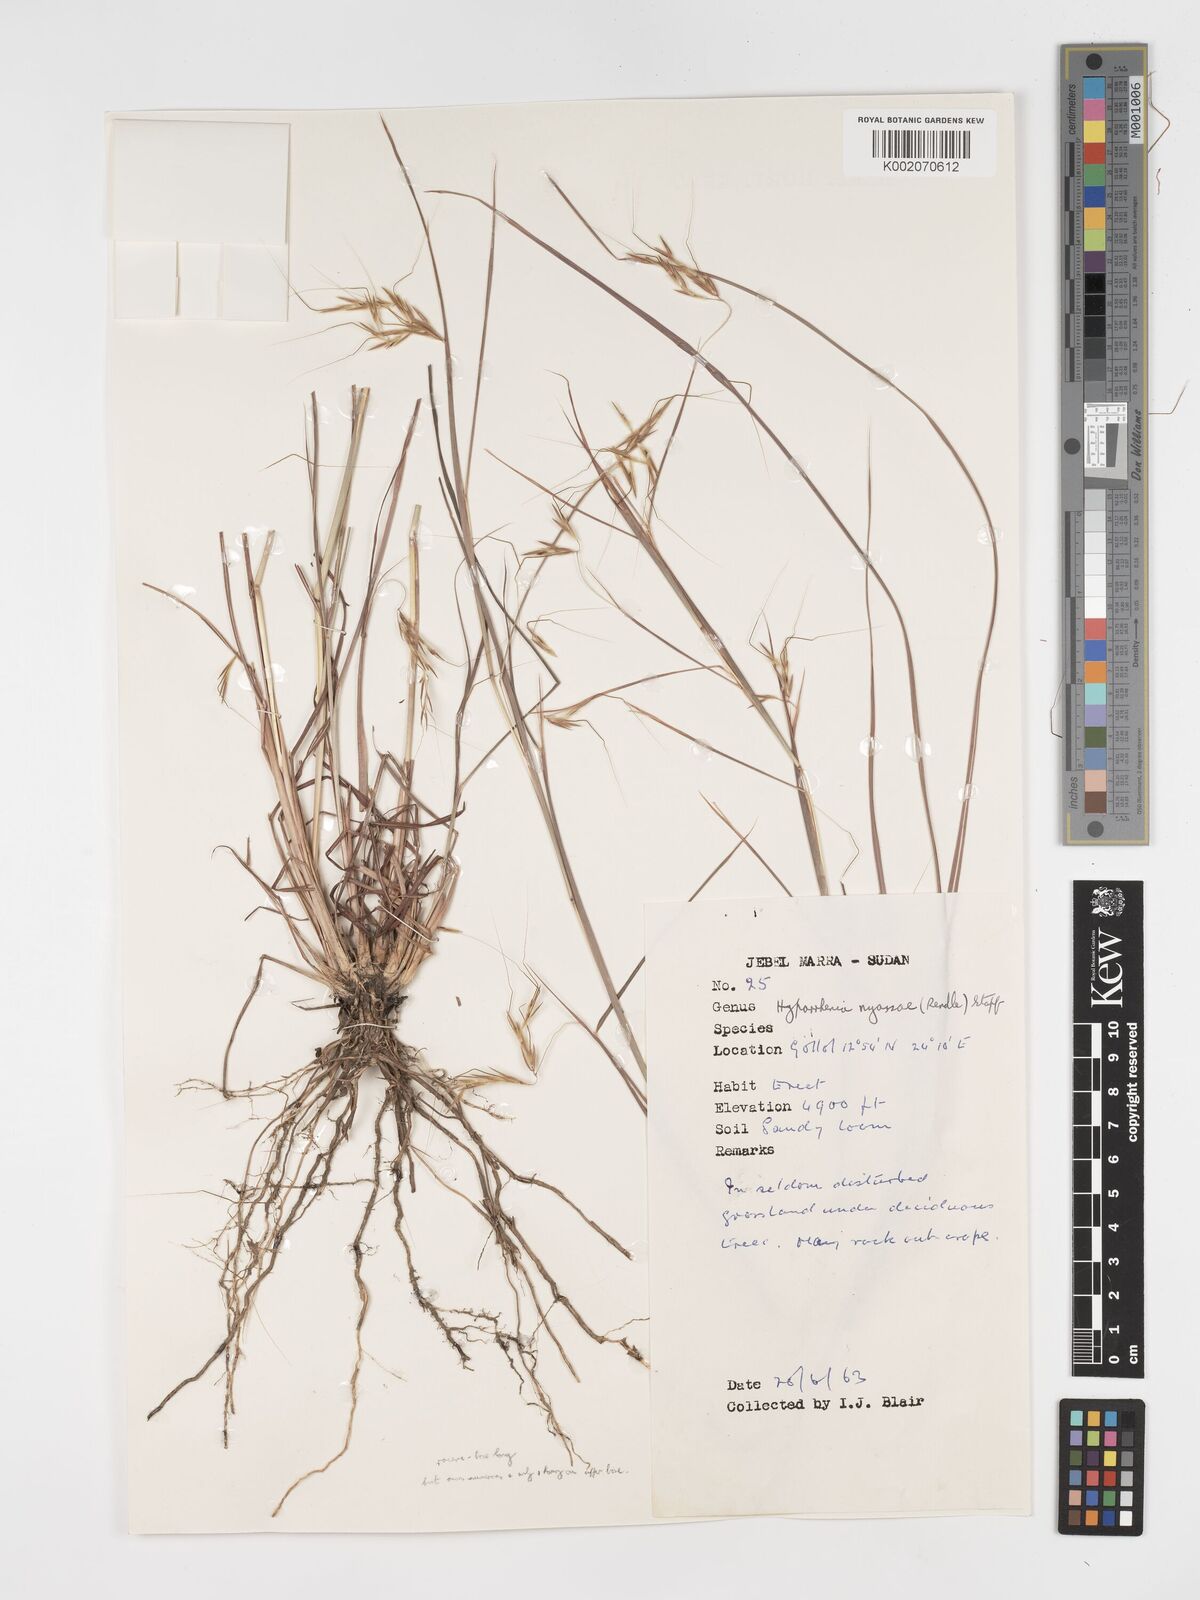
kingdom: Plantae
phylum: Tracheophyta
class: Liliopsida
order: Poales
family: Poaceae
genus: Hyparrhenia
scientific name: Hyparrhenia nyassae
